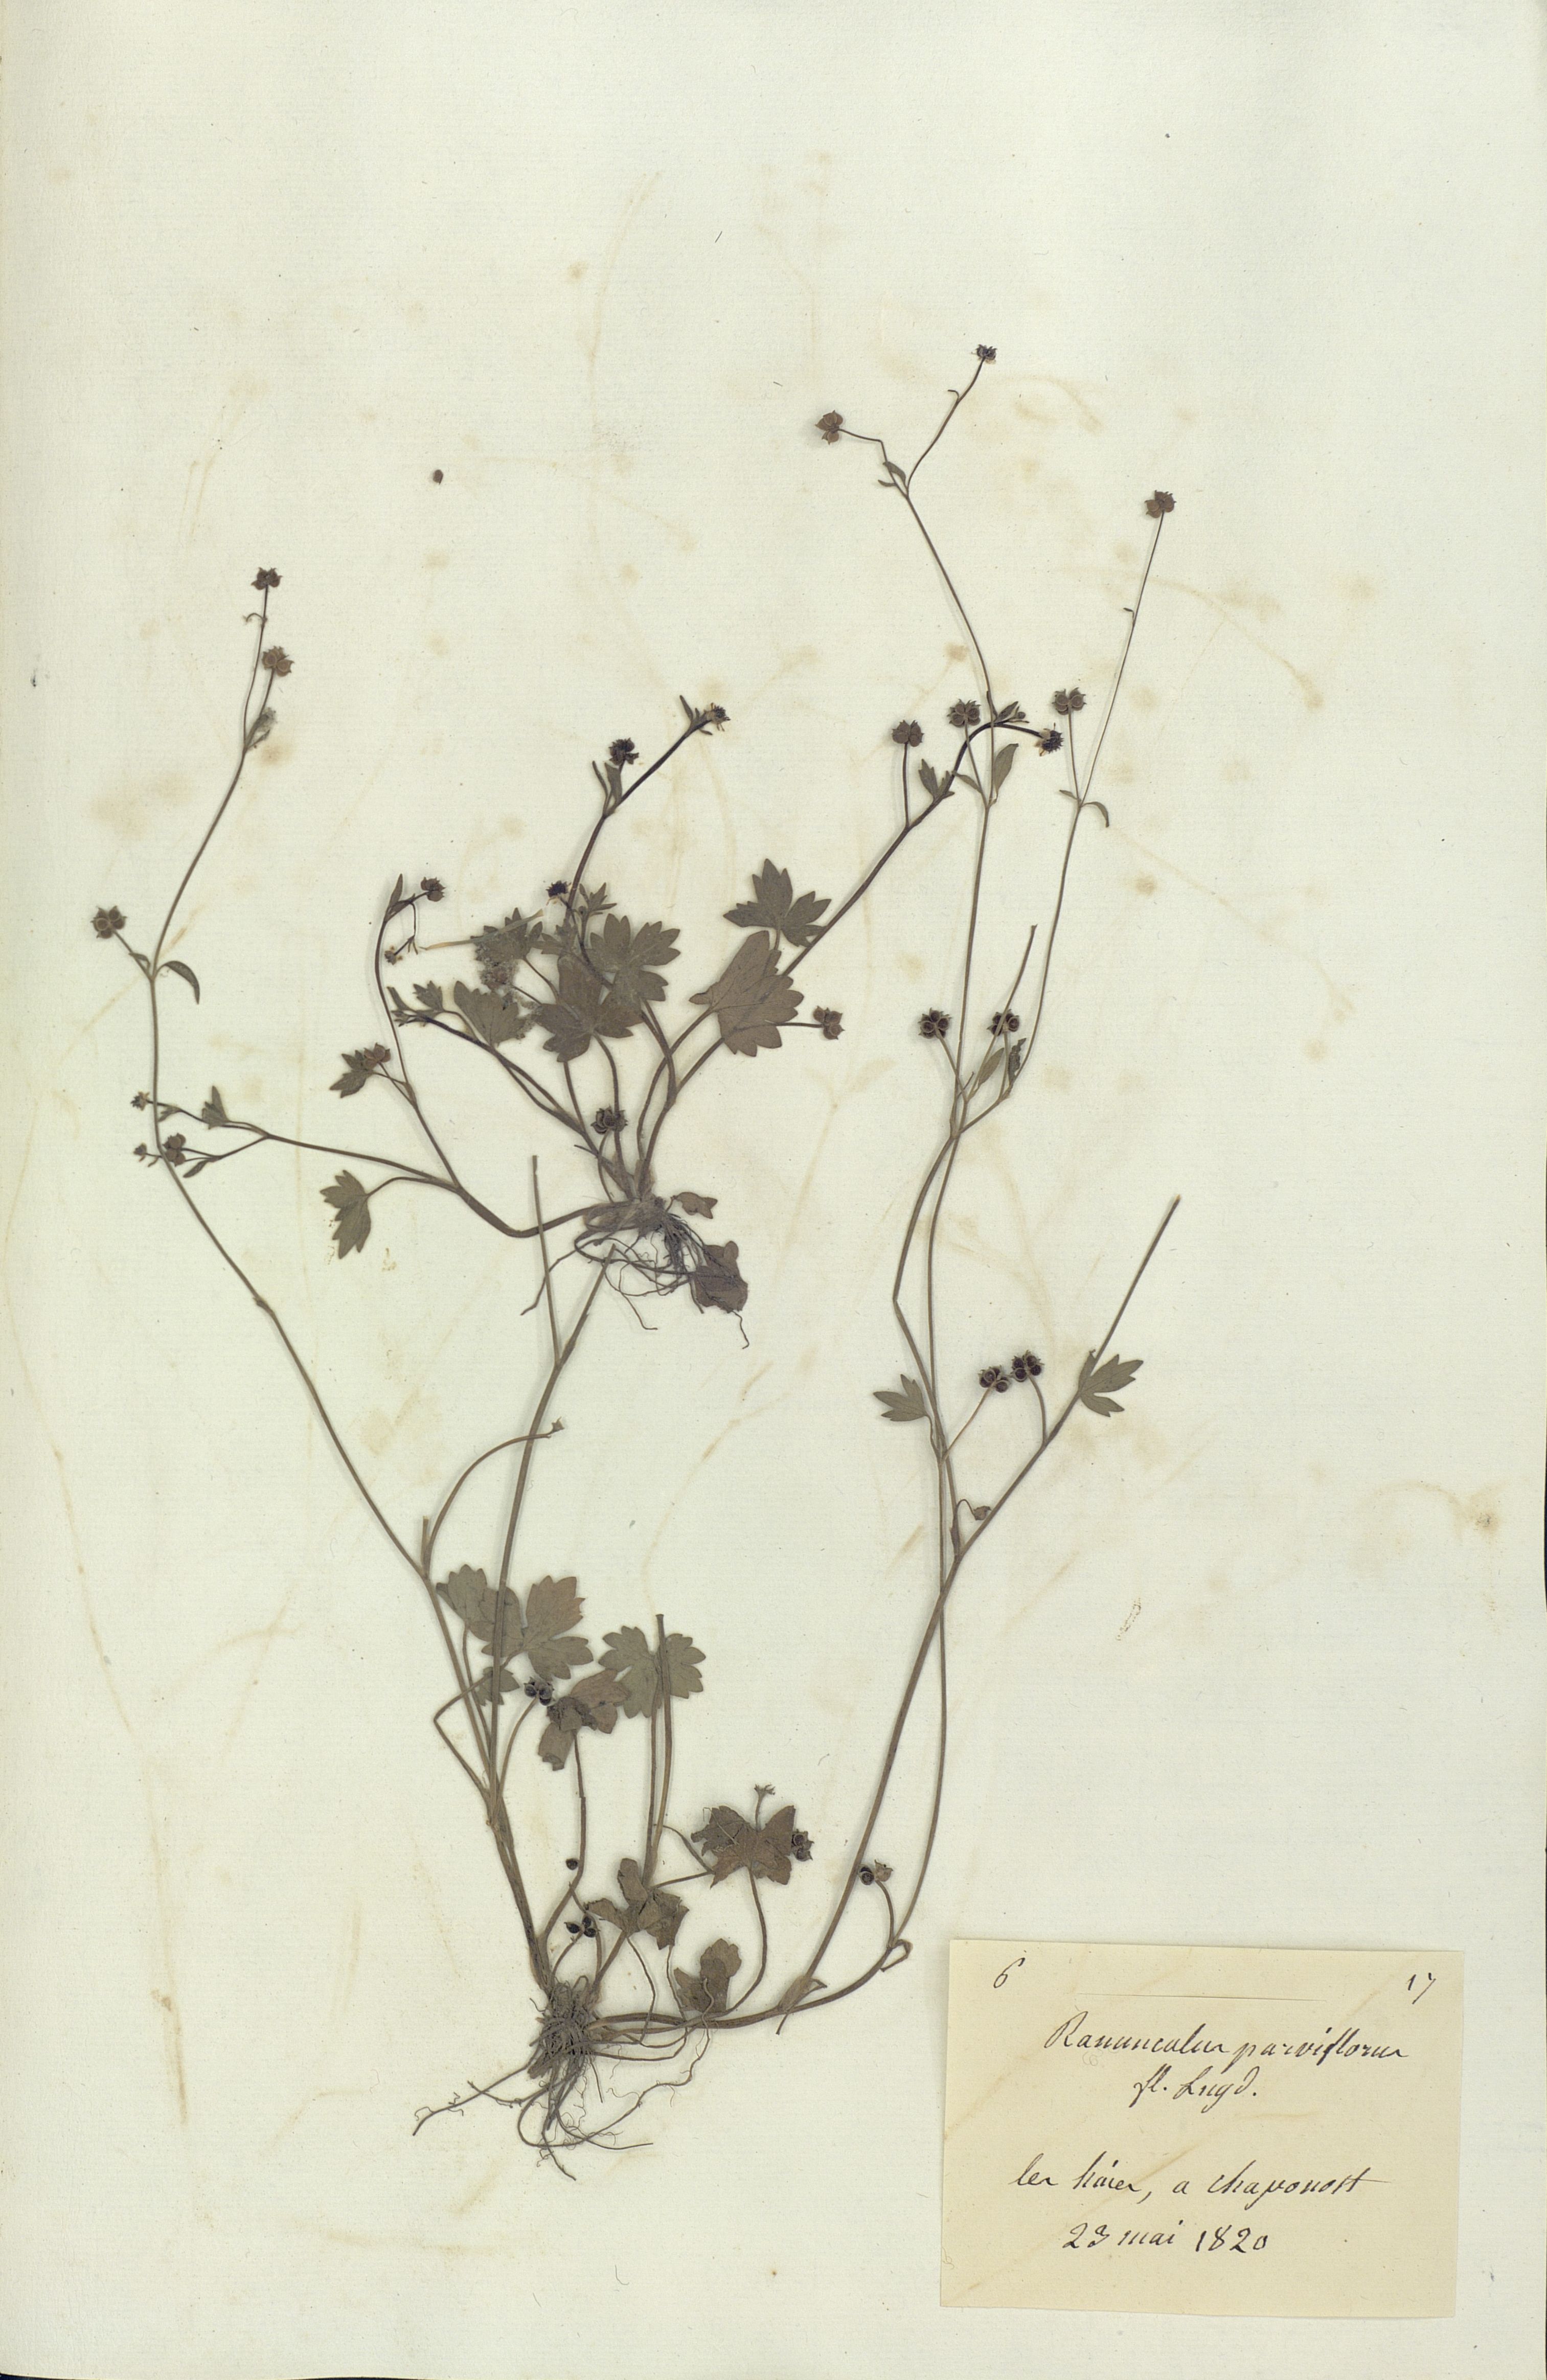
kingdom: Plantae
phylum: Tracheophyta
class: Magnoliopsida
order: Ranunculales
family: Ranunculaceae
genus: Ranunculus
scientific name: Ranunculus parviflorus
